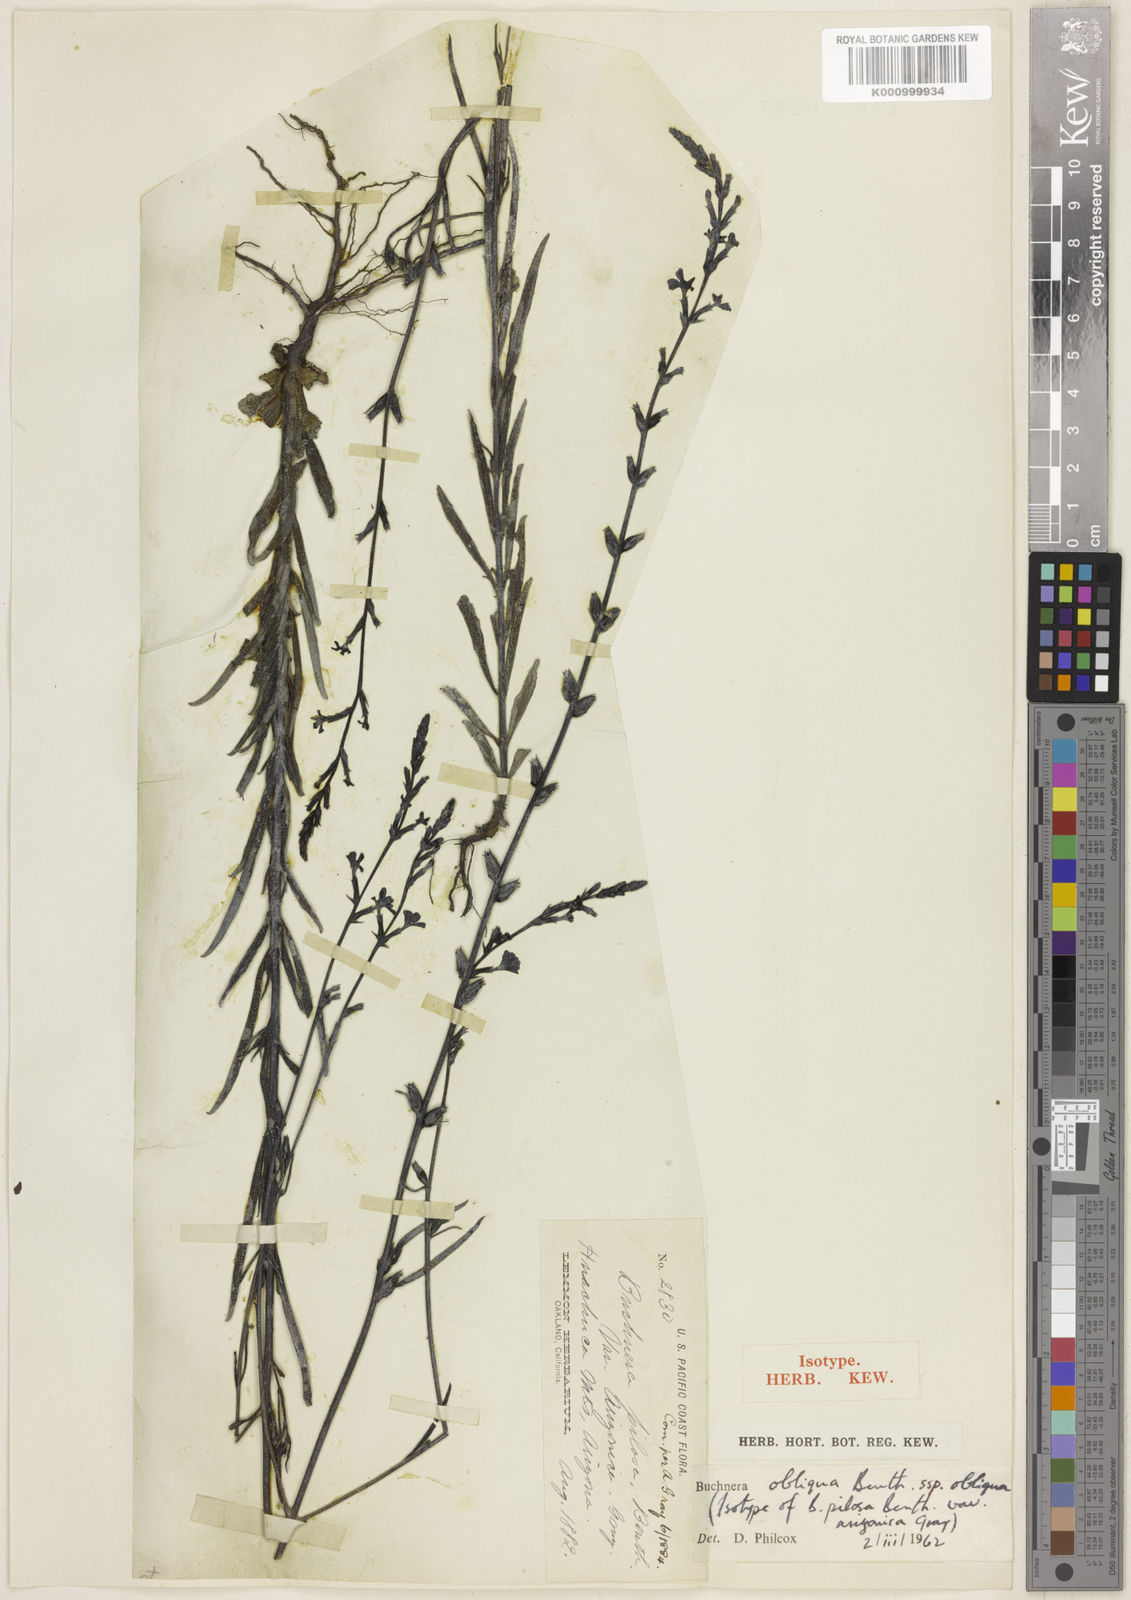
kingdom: Plantae
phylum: Tracheophyta
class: Magnoliopsida
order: Lamiales
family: Orobanchaceae
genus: Buchnera
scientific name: Buchnera obliqua
